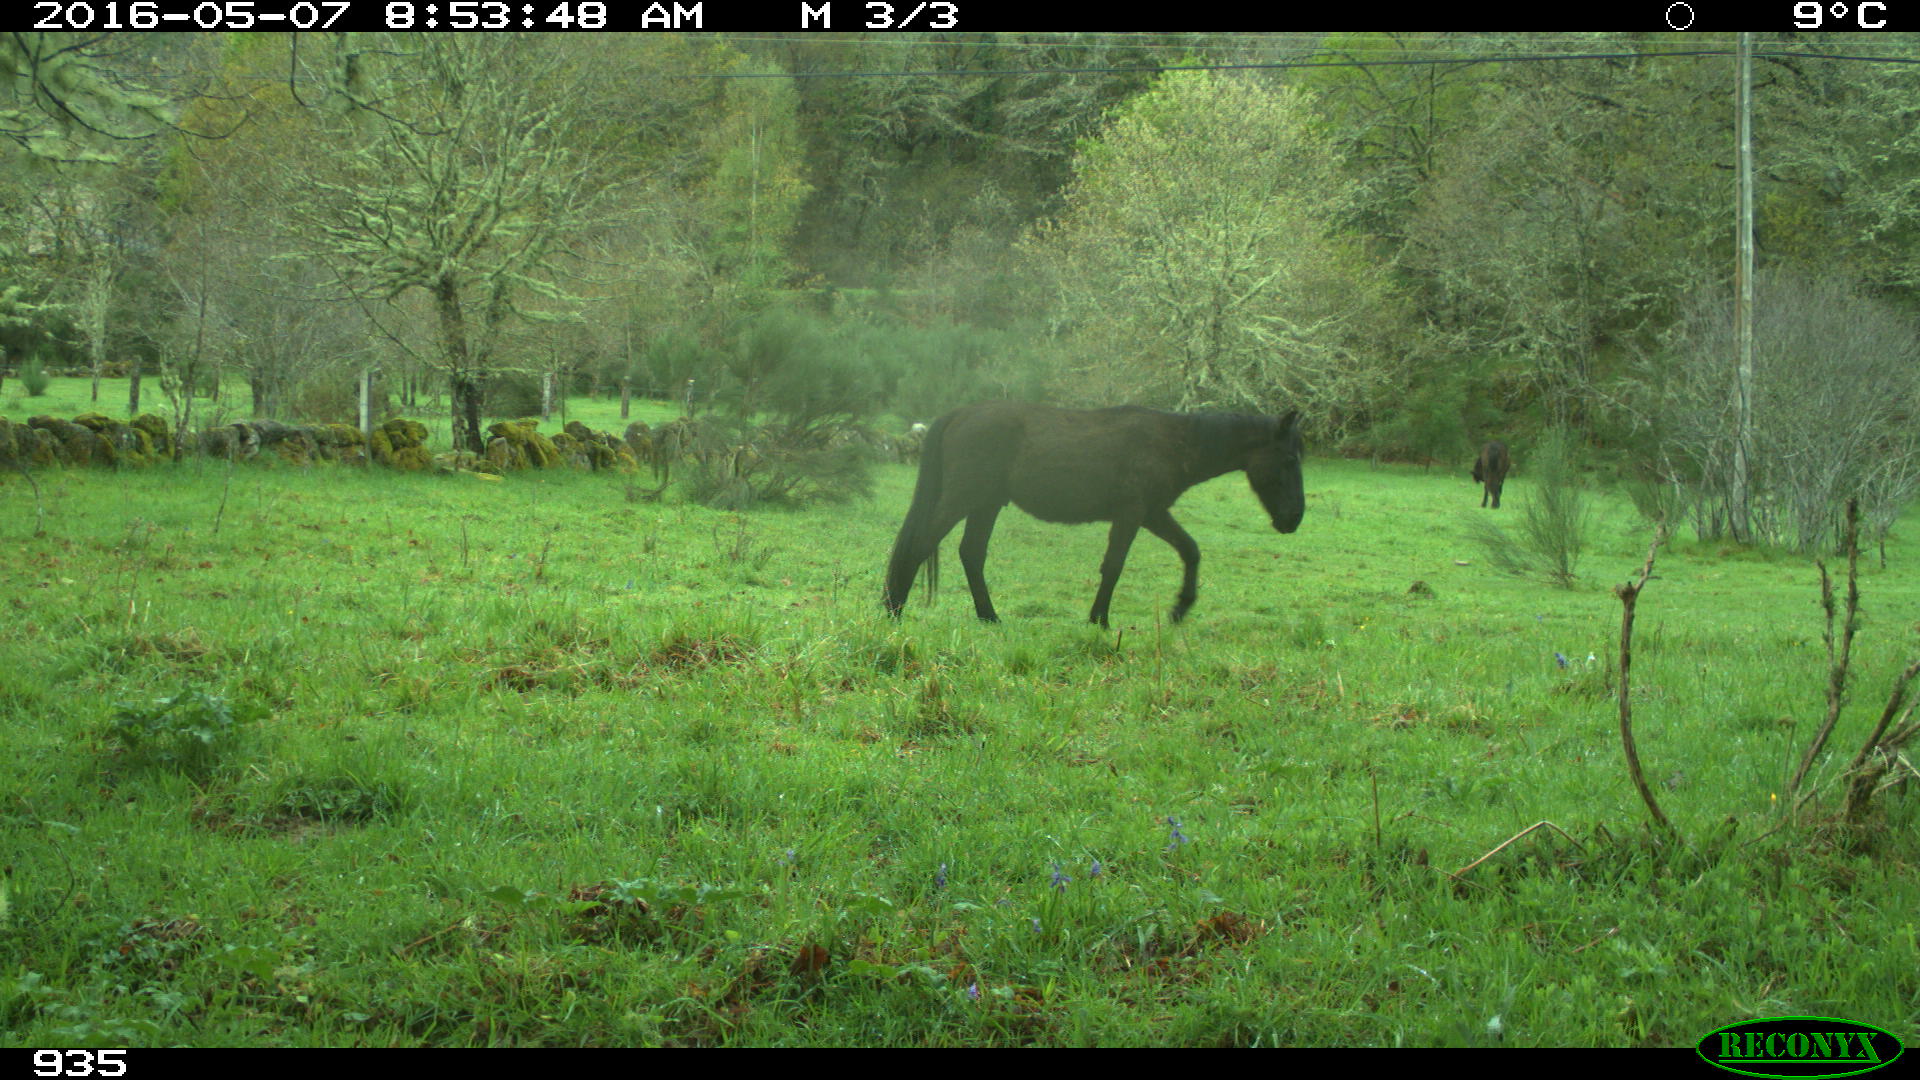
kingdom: Animalia
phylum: Chordata
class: Mammalia
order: Perissodactyla
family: Equidae
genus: Equus
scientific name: Equus caballus
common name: Horse
